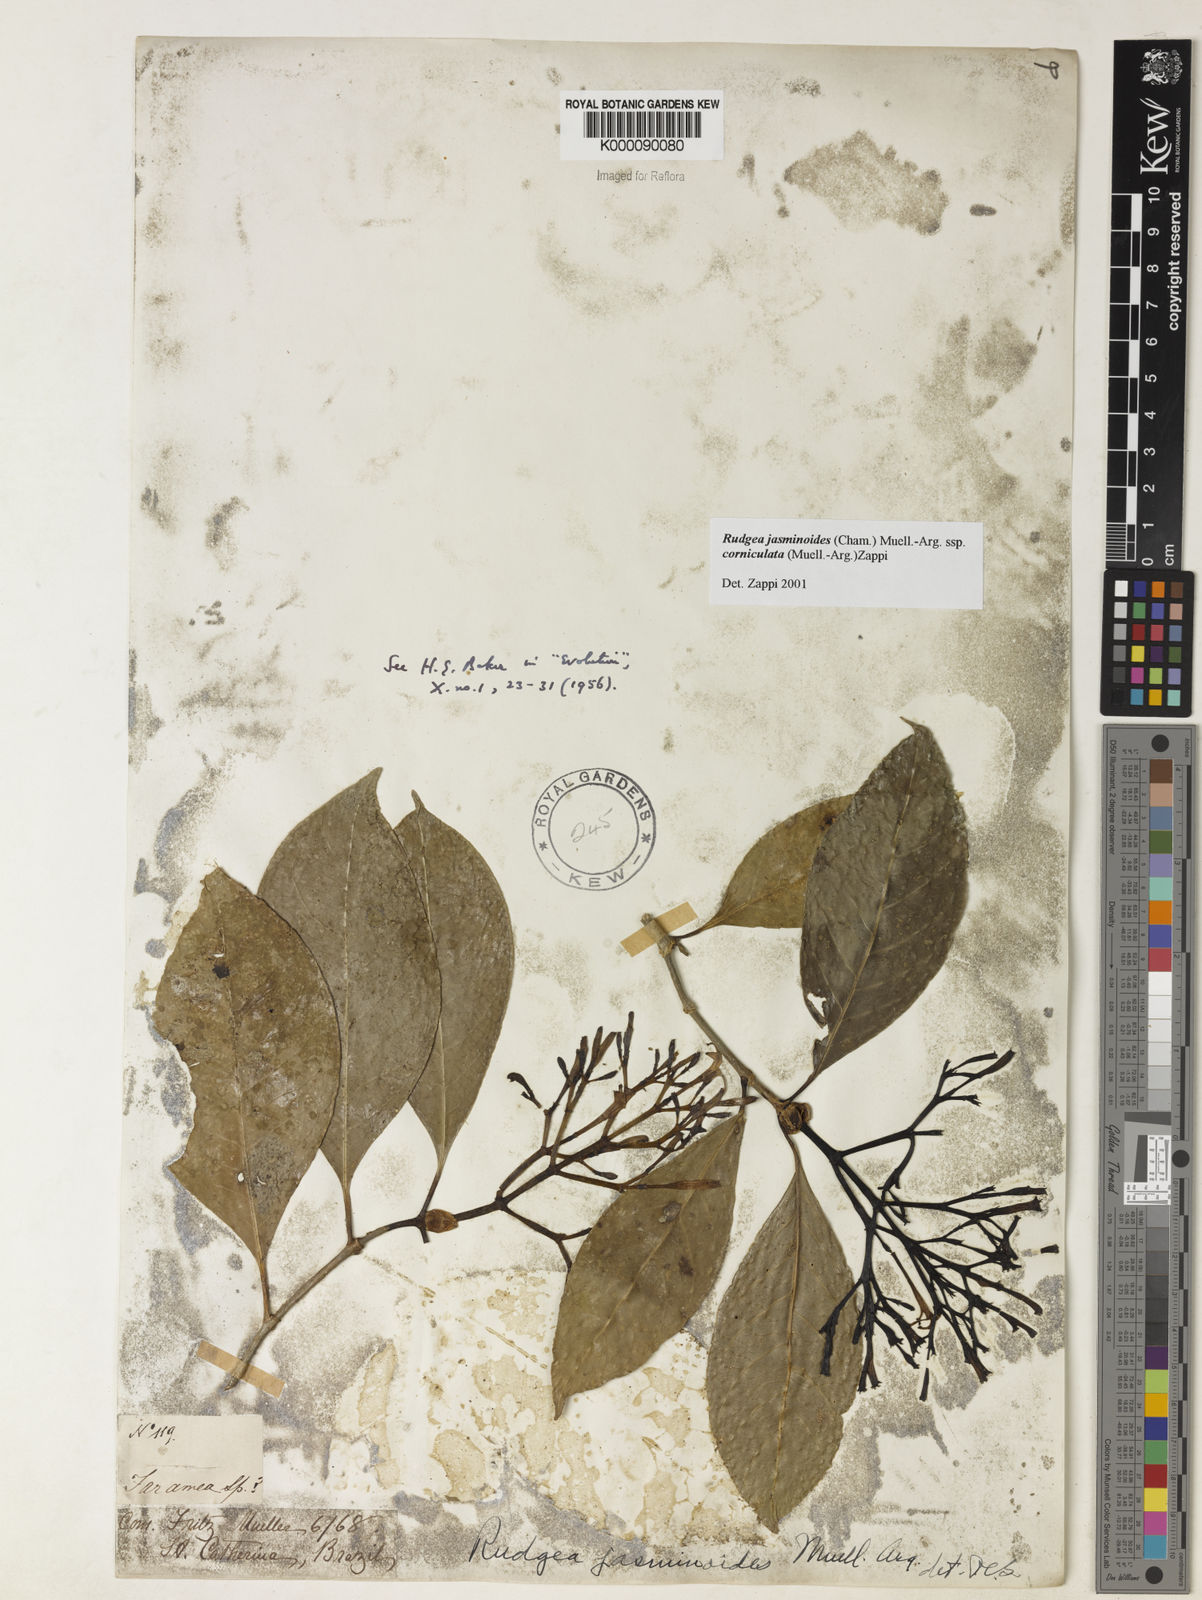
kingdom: Plantae
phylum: Tracheophyta
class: Magnoliopsida
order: Gentianales
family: Rubiaceae
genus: Rudgea
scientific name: Rudgea jasminoides
